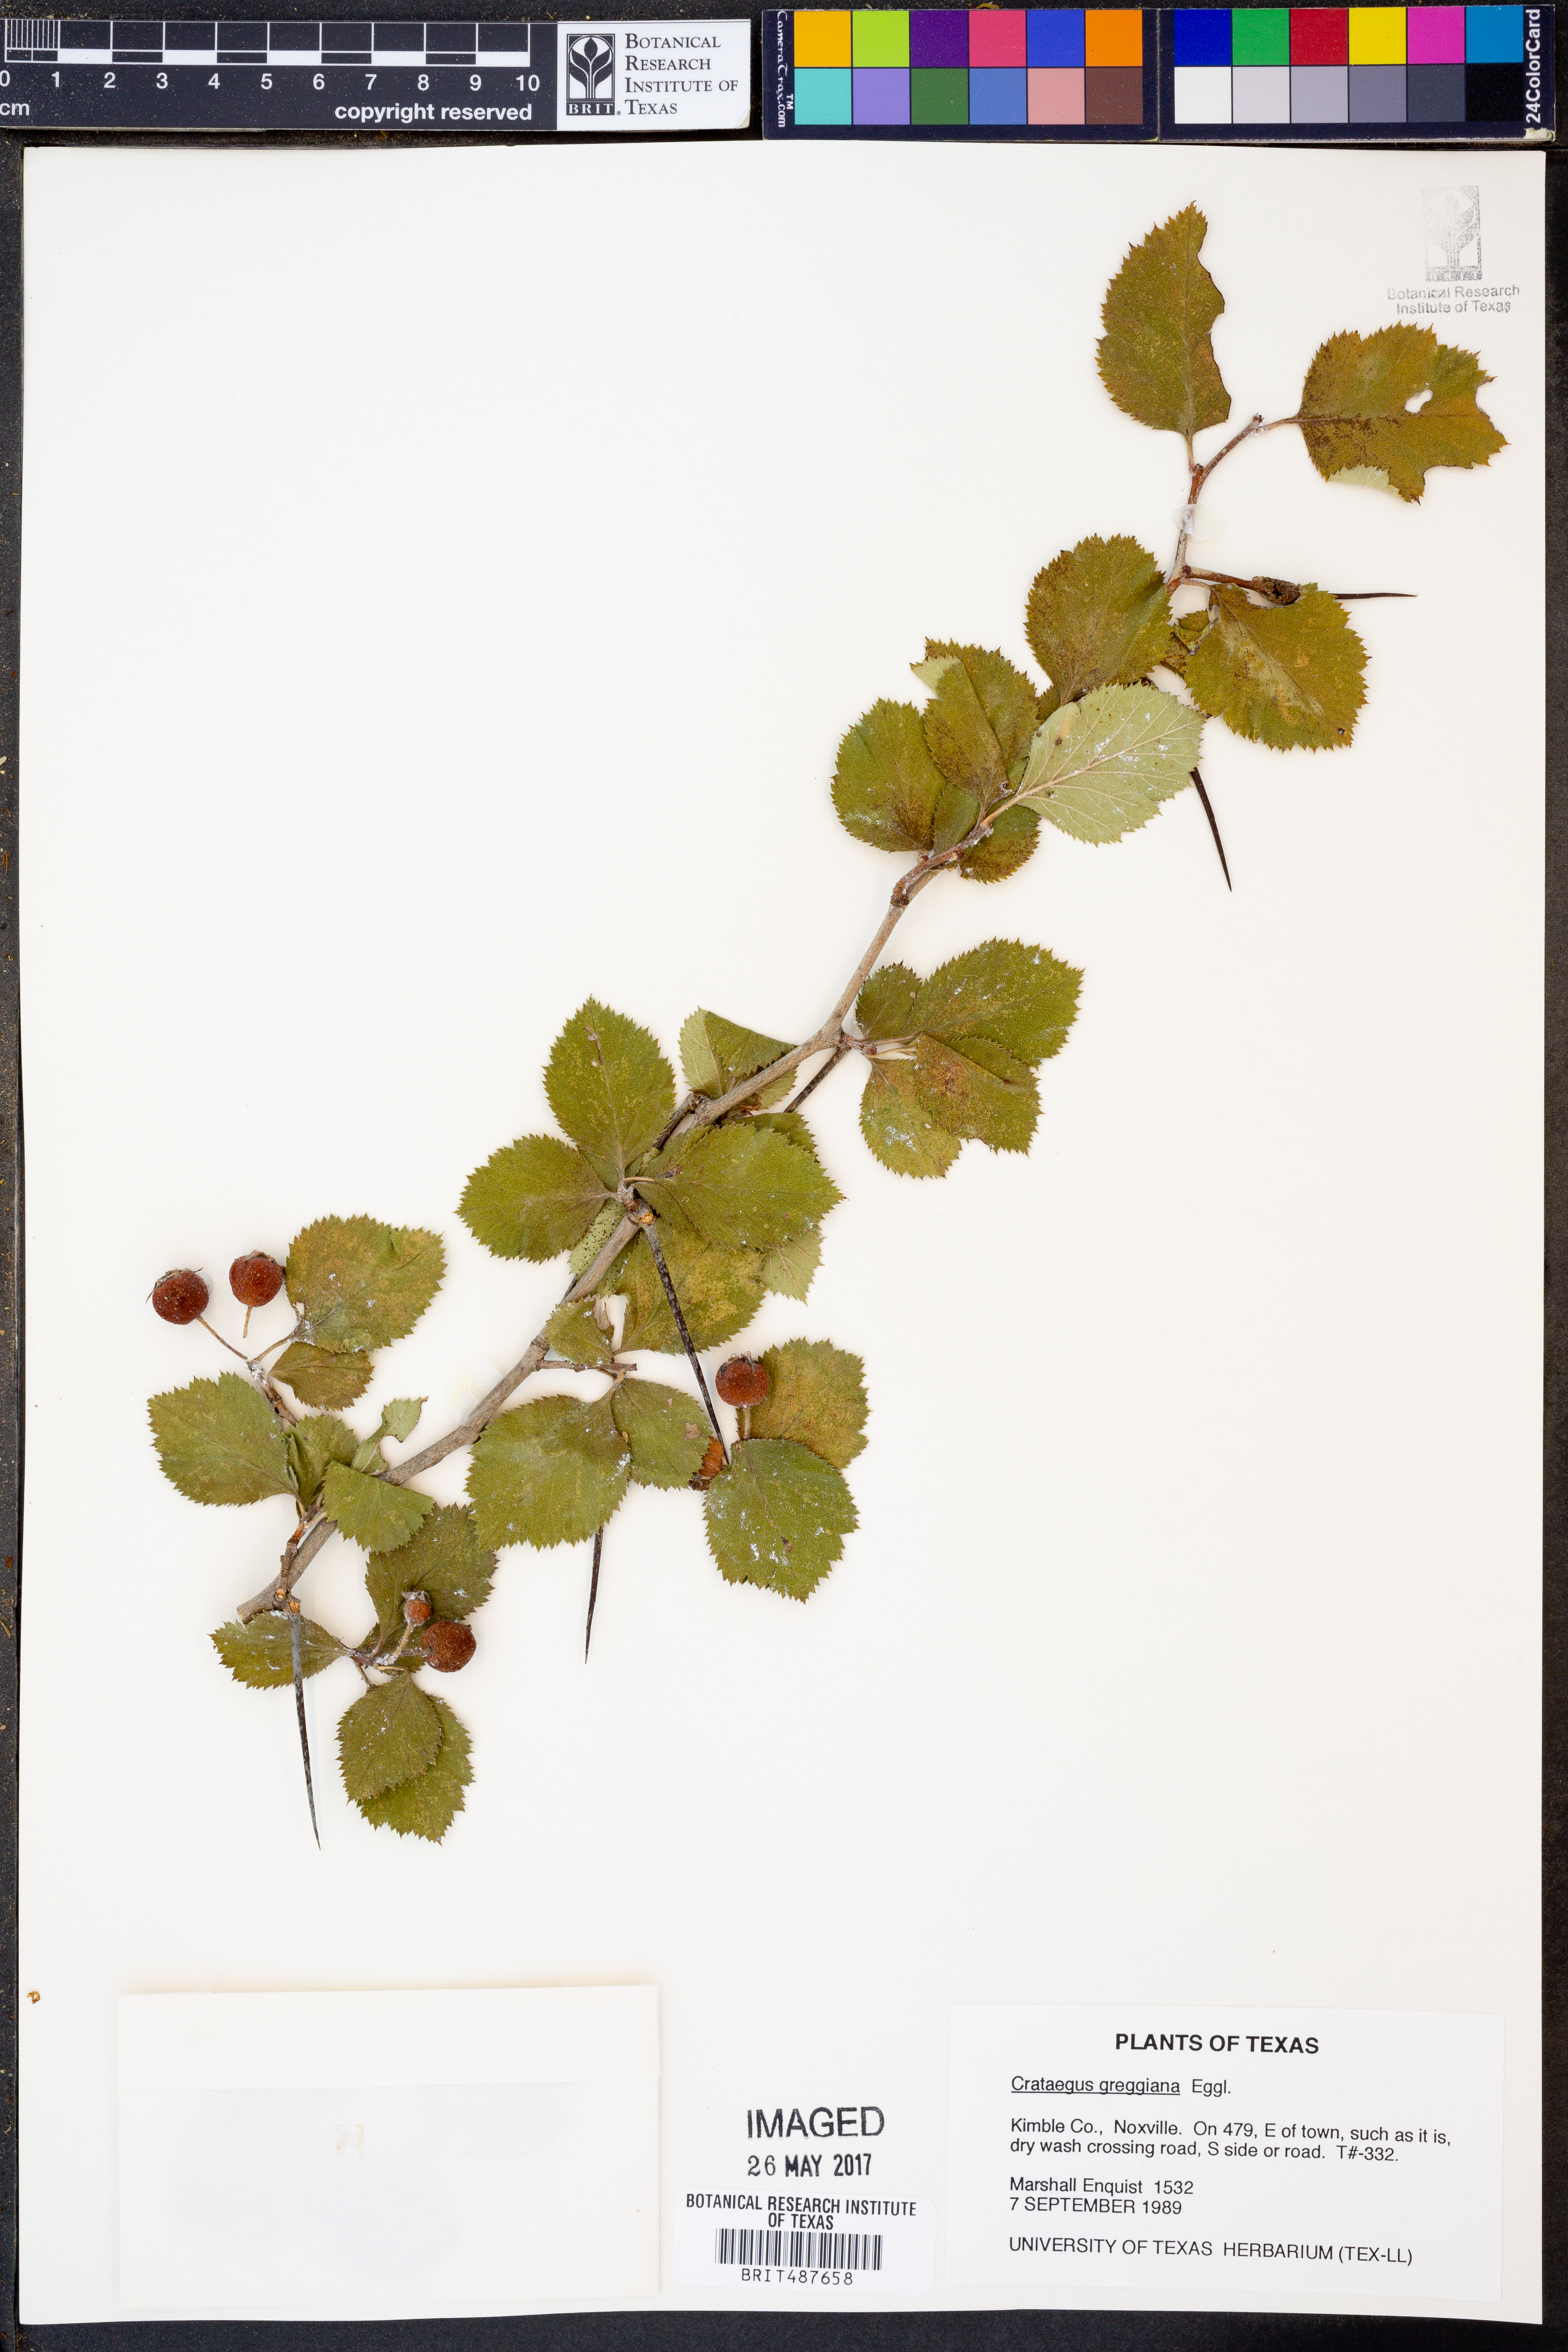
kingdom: Plantae
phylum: Tracheophyta
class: Magnoliopsida
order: Rosales
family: Rosaceae
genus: Crataegus
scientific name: Crataegus greggiana
